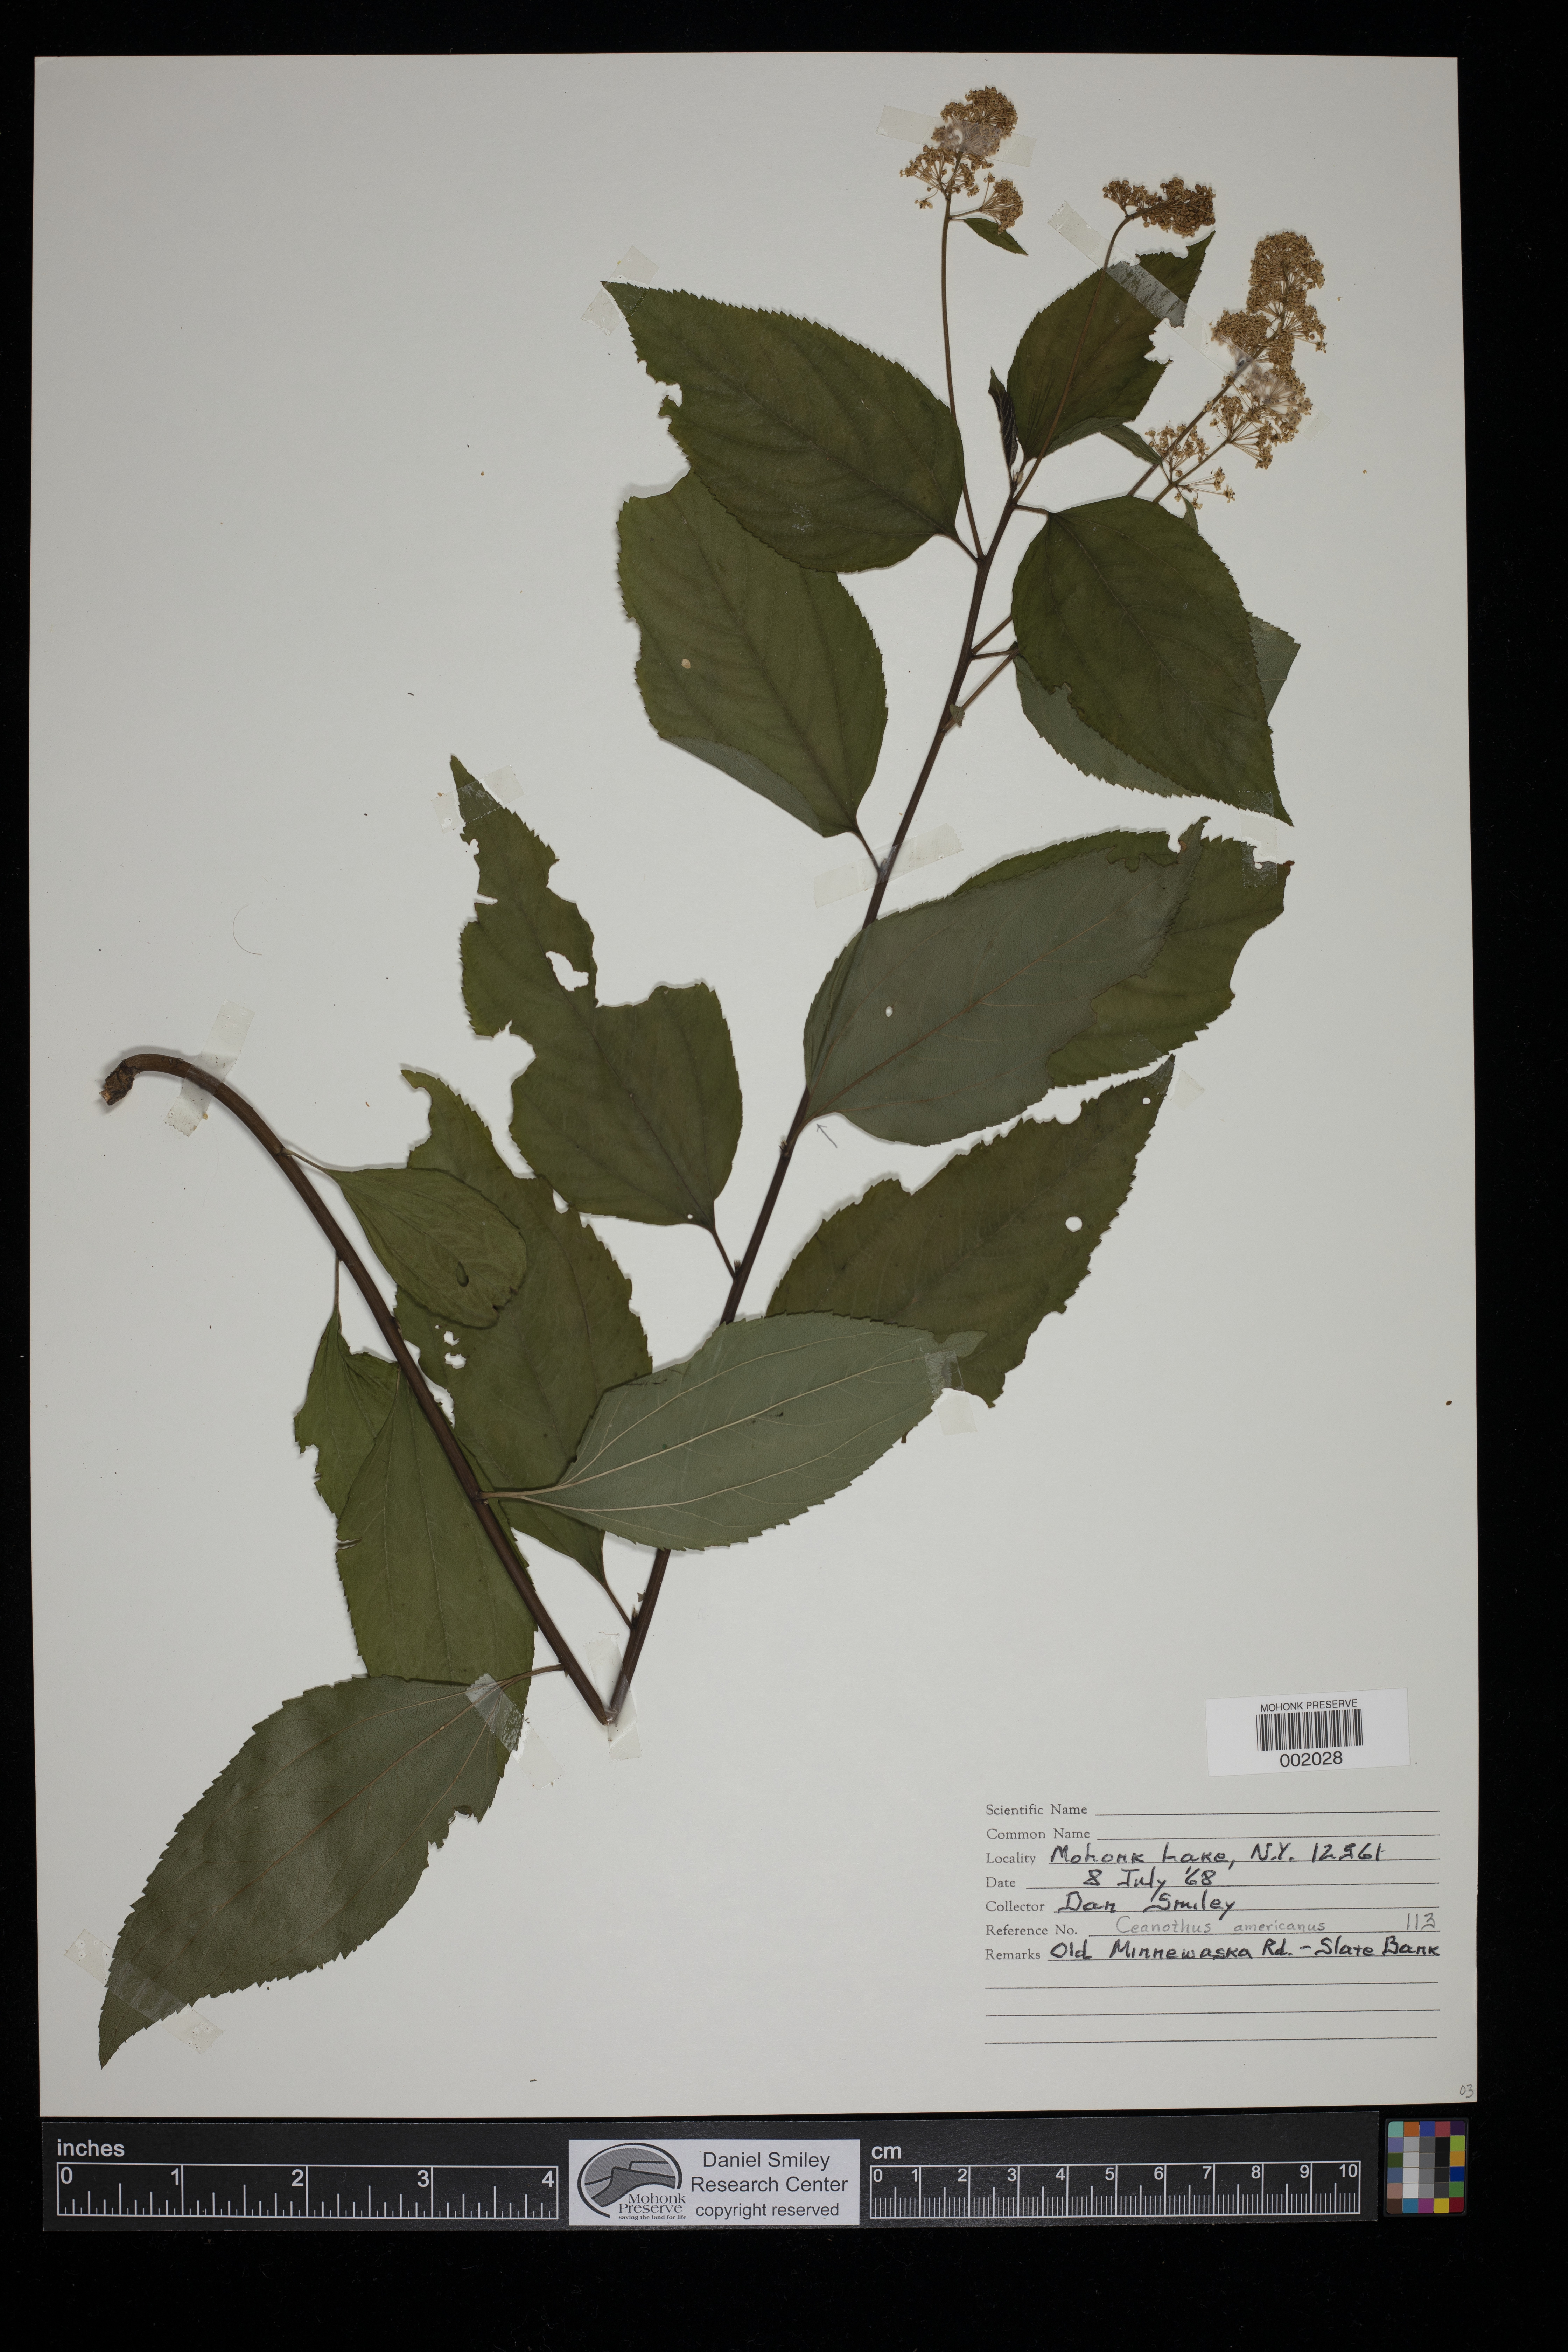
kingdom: Plantae
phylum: Tracheophyta
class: Magnoliopsida
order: Rosales
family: Rhamnaceae
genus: Ceanothus
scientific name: Ceanothus americanus
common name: Redroot
